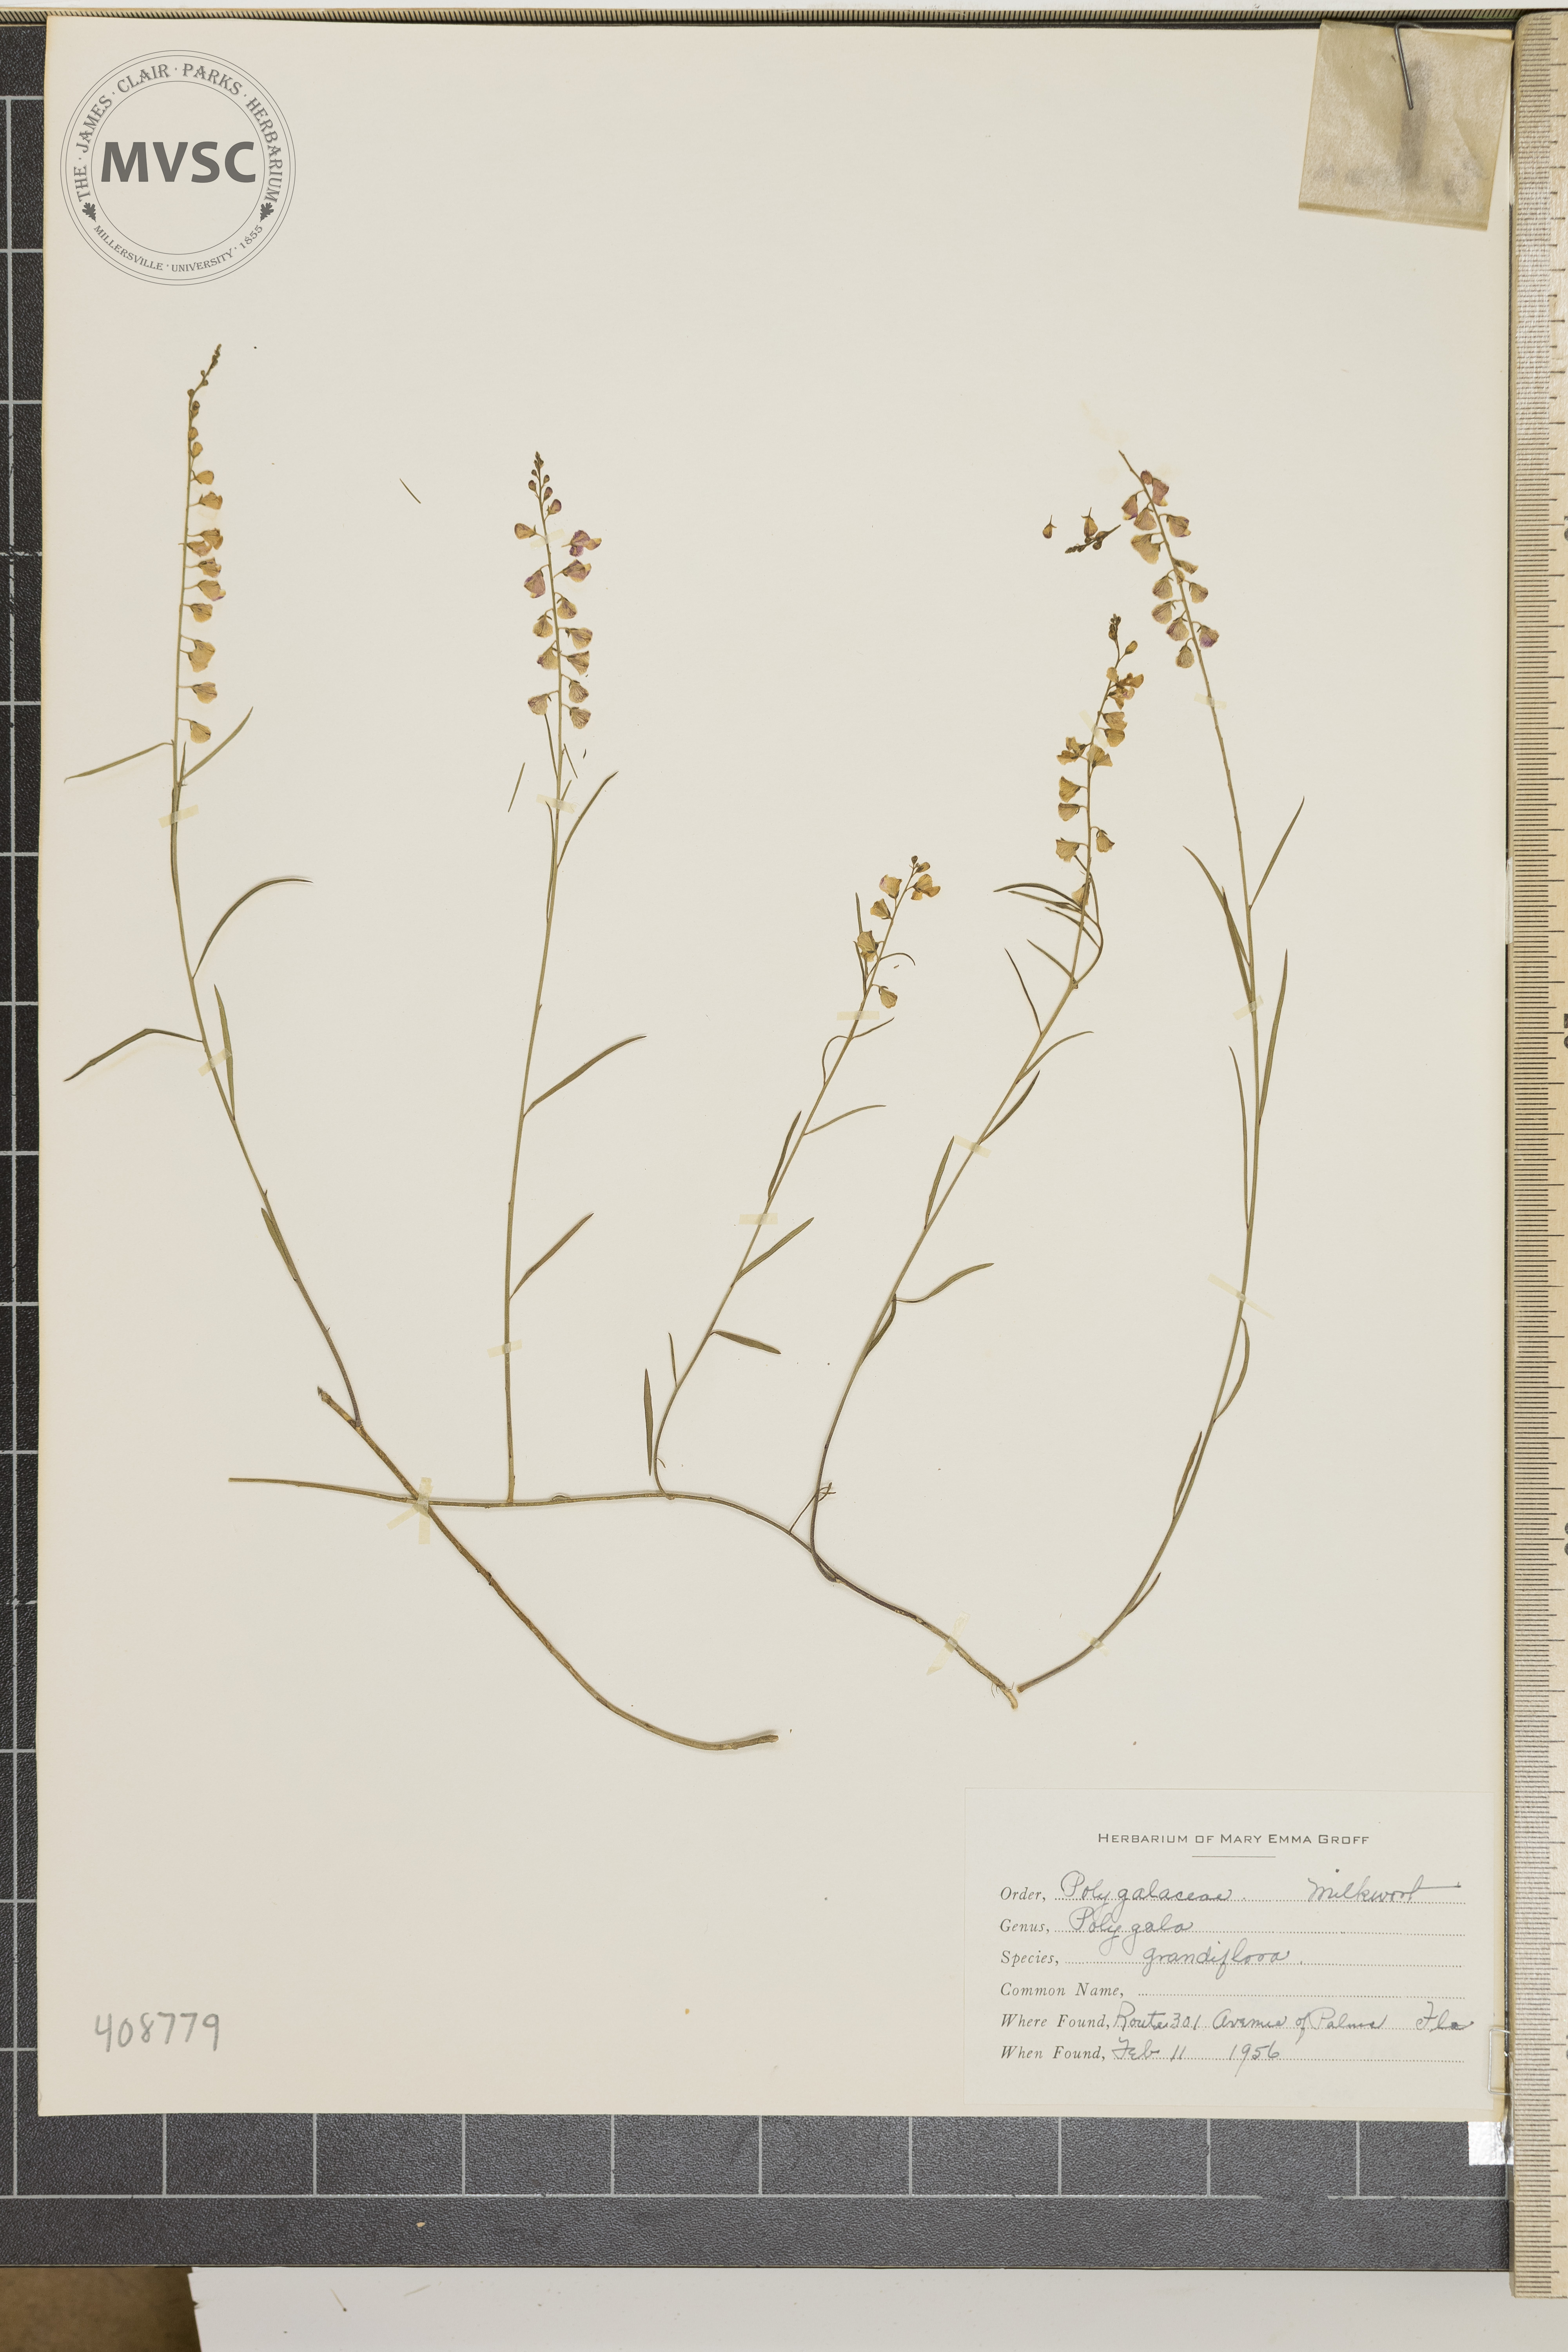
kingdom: Plantae
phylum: Tracheophyta
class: Magnoliopsida
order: Fabales
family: Polygalaceae
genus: Polygala
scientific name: Polygala grandiflora
